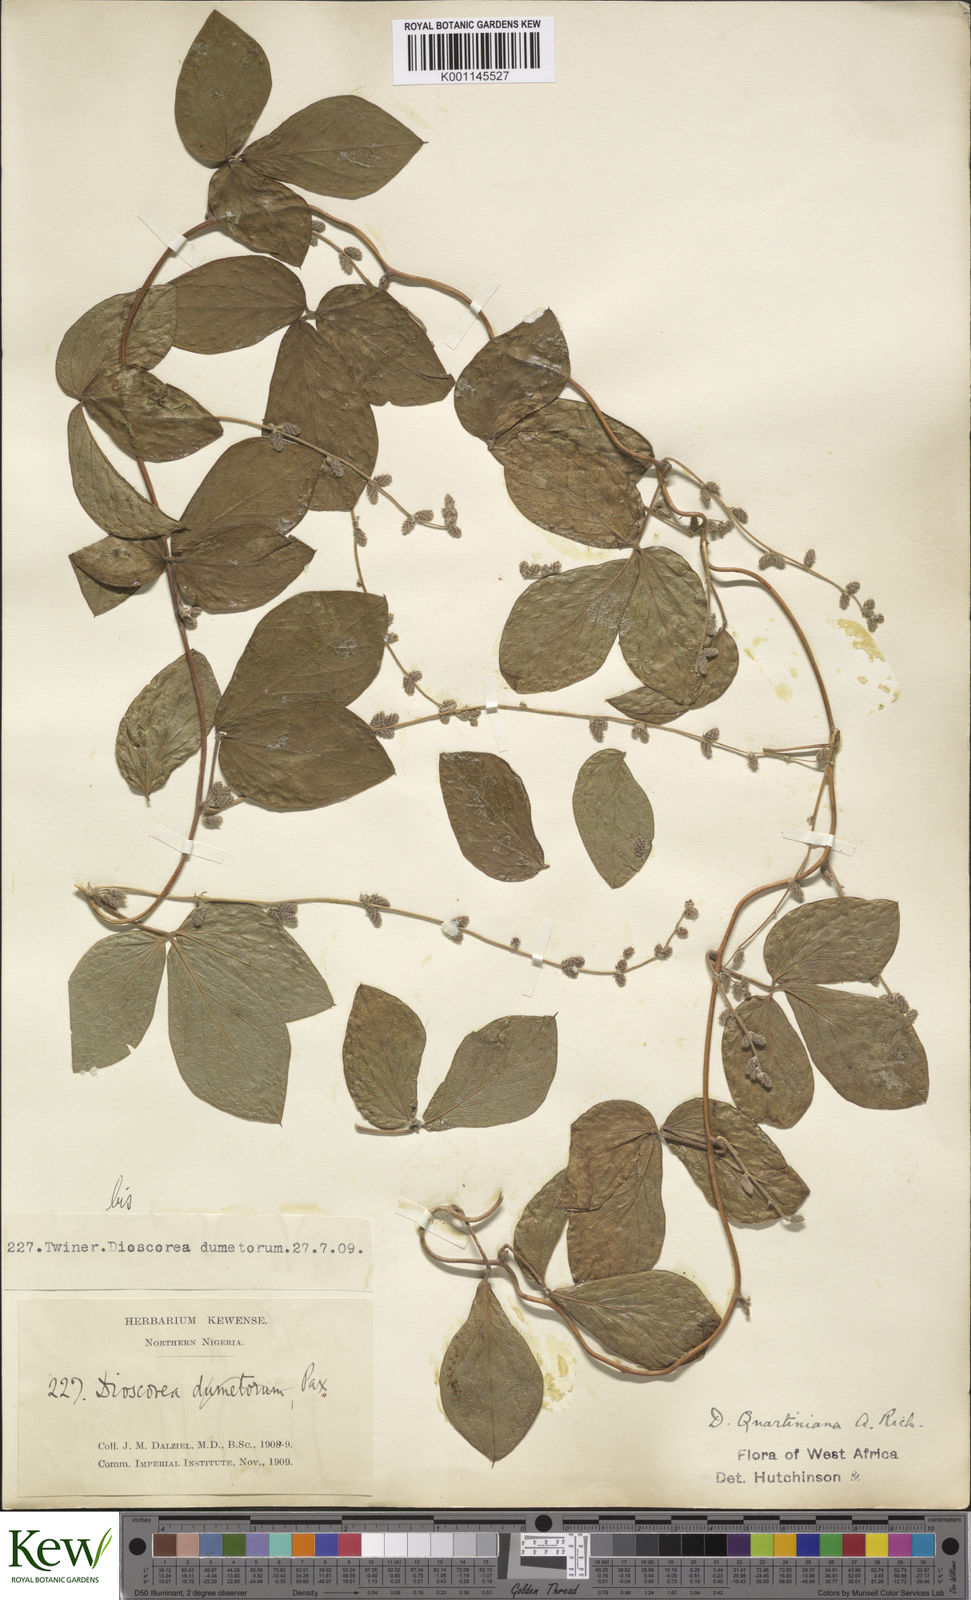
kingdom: Plantae
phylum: Tracheophyta
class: Liliopsida
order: Dioscoreales
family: Dioscoreaceae
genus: Dioscorea
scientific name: Dioscorea quartiniana
